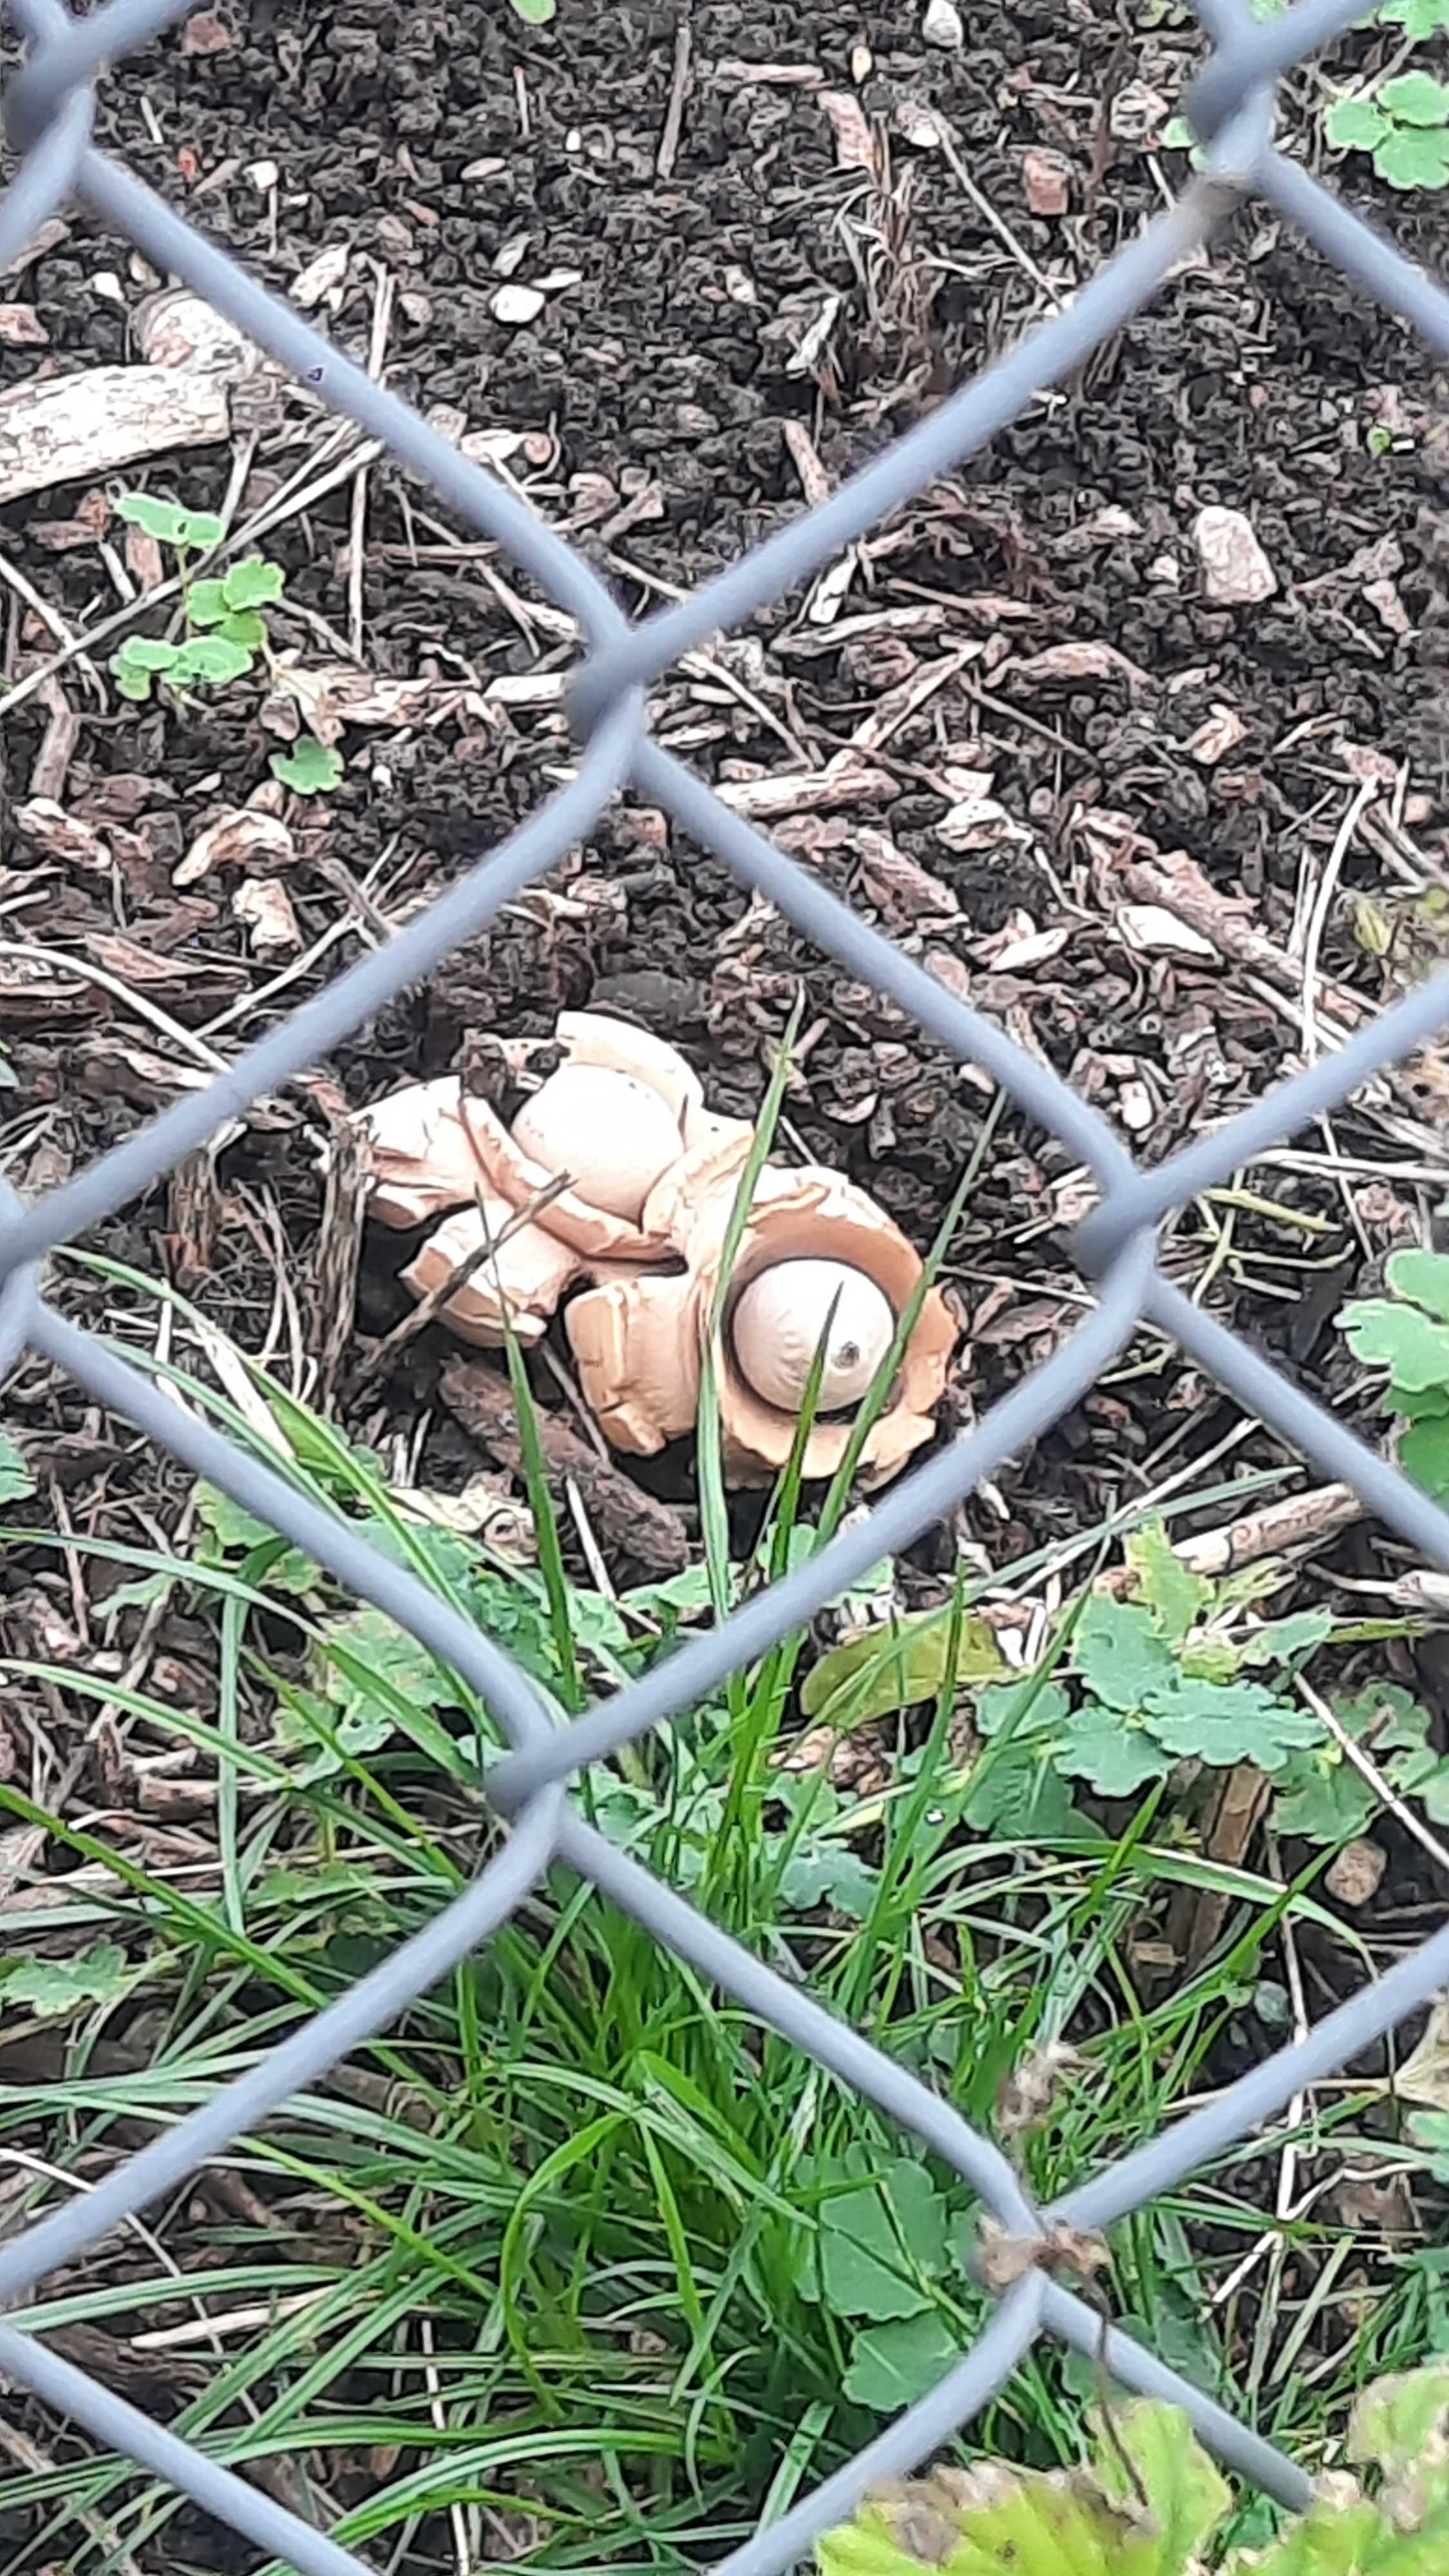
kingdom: Fungi
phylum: Basidiomycota
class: Agaricomycetes
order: Geastrales
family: Geastraceae
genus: Geastrum
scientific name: Geastrum michelianum
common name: kødet stjernebold
